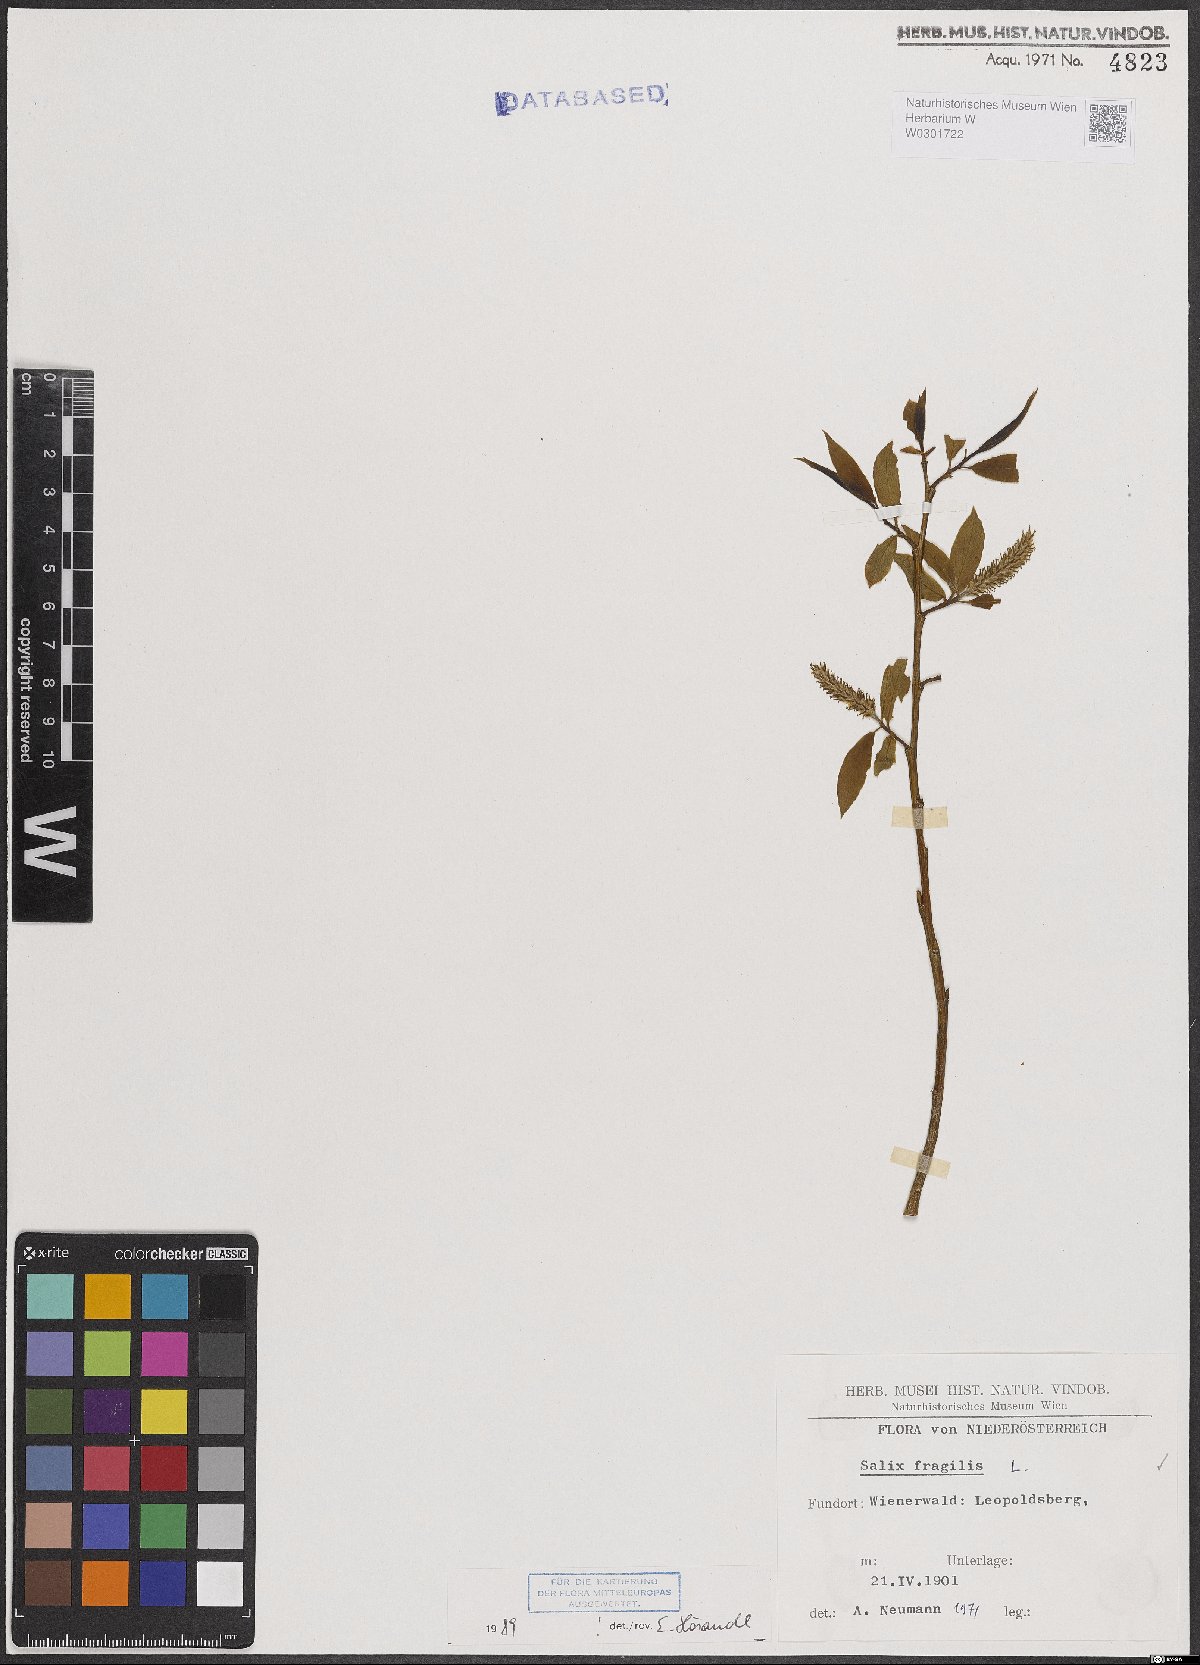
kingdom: Plantae
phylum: Tracheophyta
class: Magnoliopsida
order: Malpighiales
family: Salicaceae
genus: Salix
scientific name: Salix fragilis
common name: Crack willow
